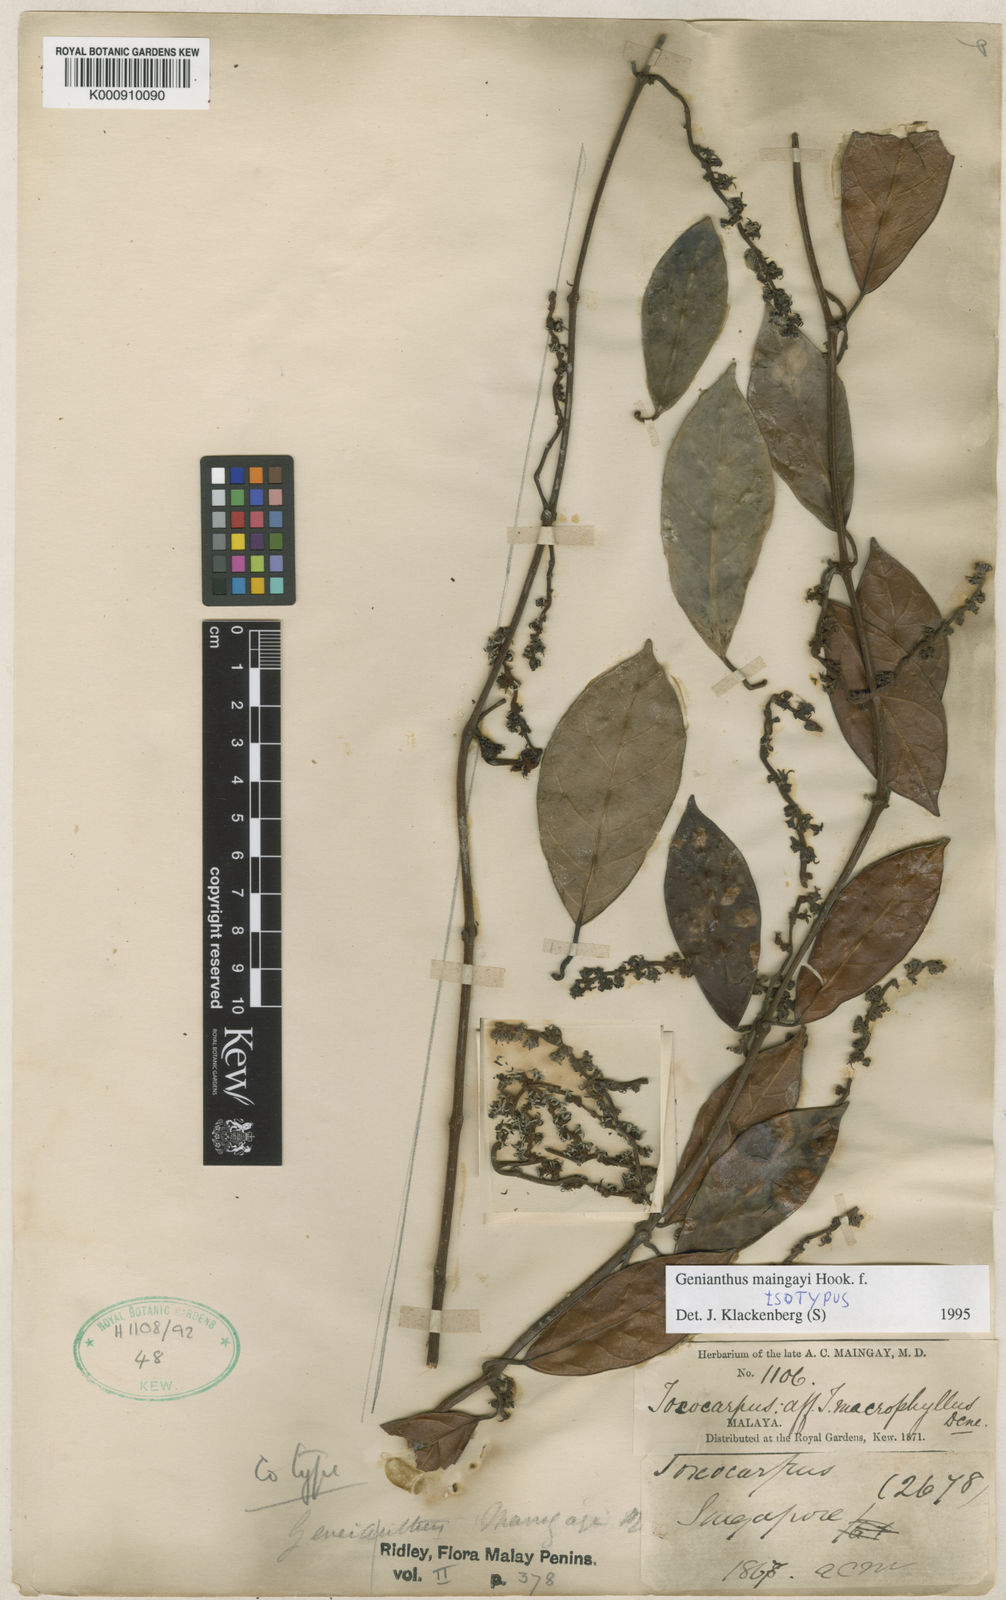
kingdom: Plantae
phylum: Tracheophyta
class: Magnoliopsida
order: Gentianales
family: Apocynaceae
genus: Secamone
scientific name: Secamone maingayi
